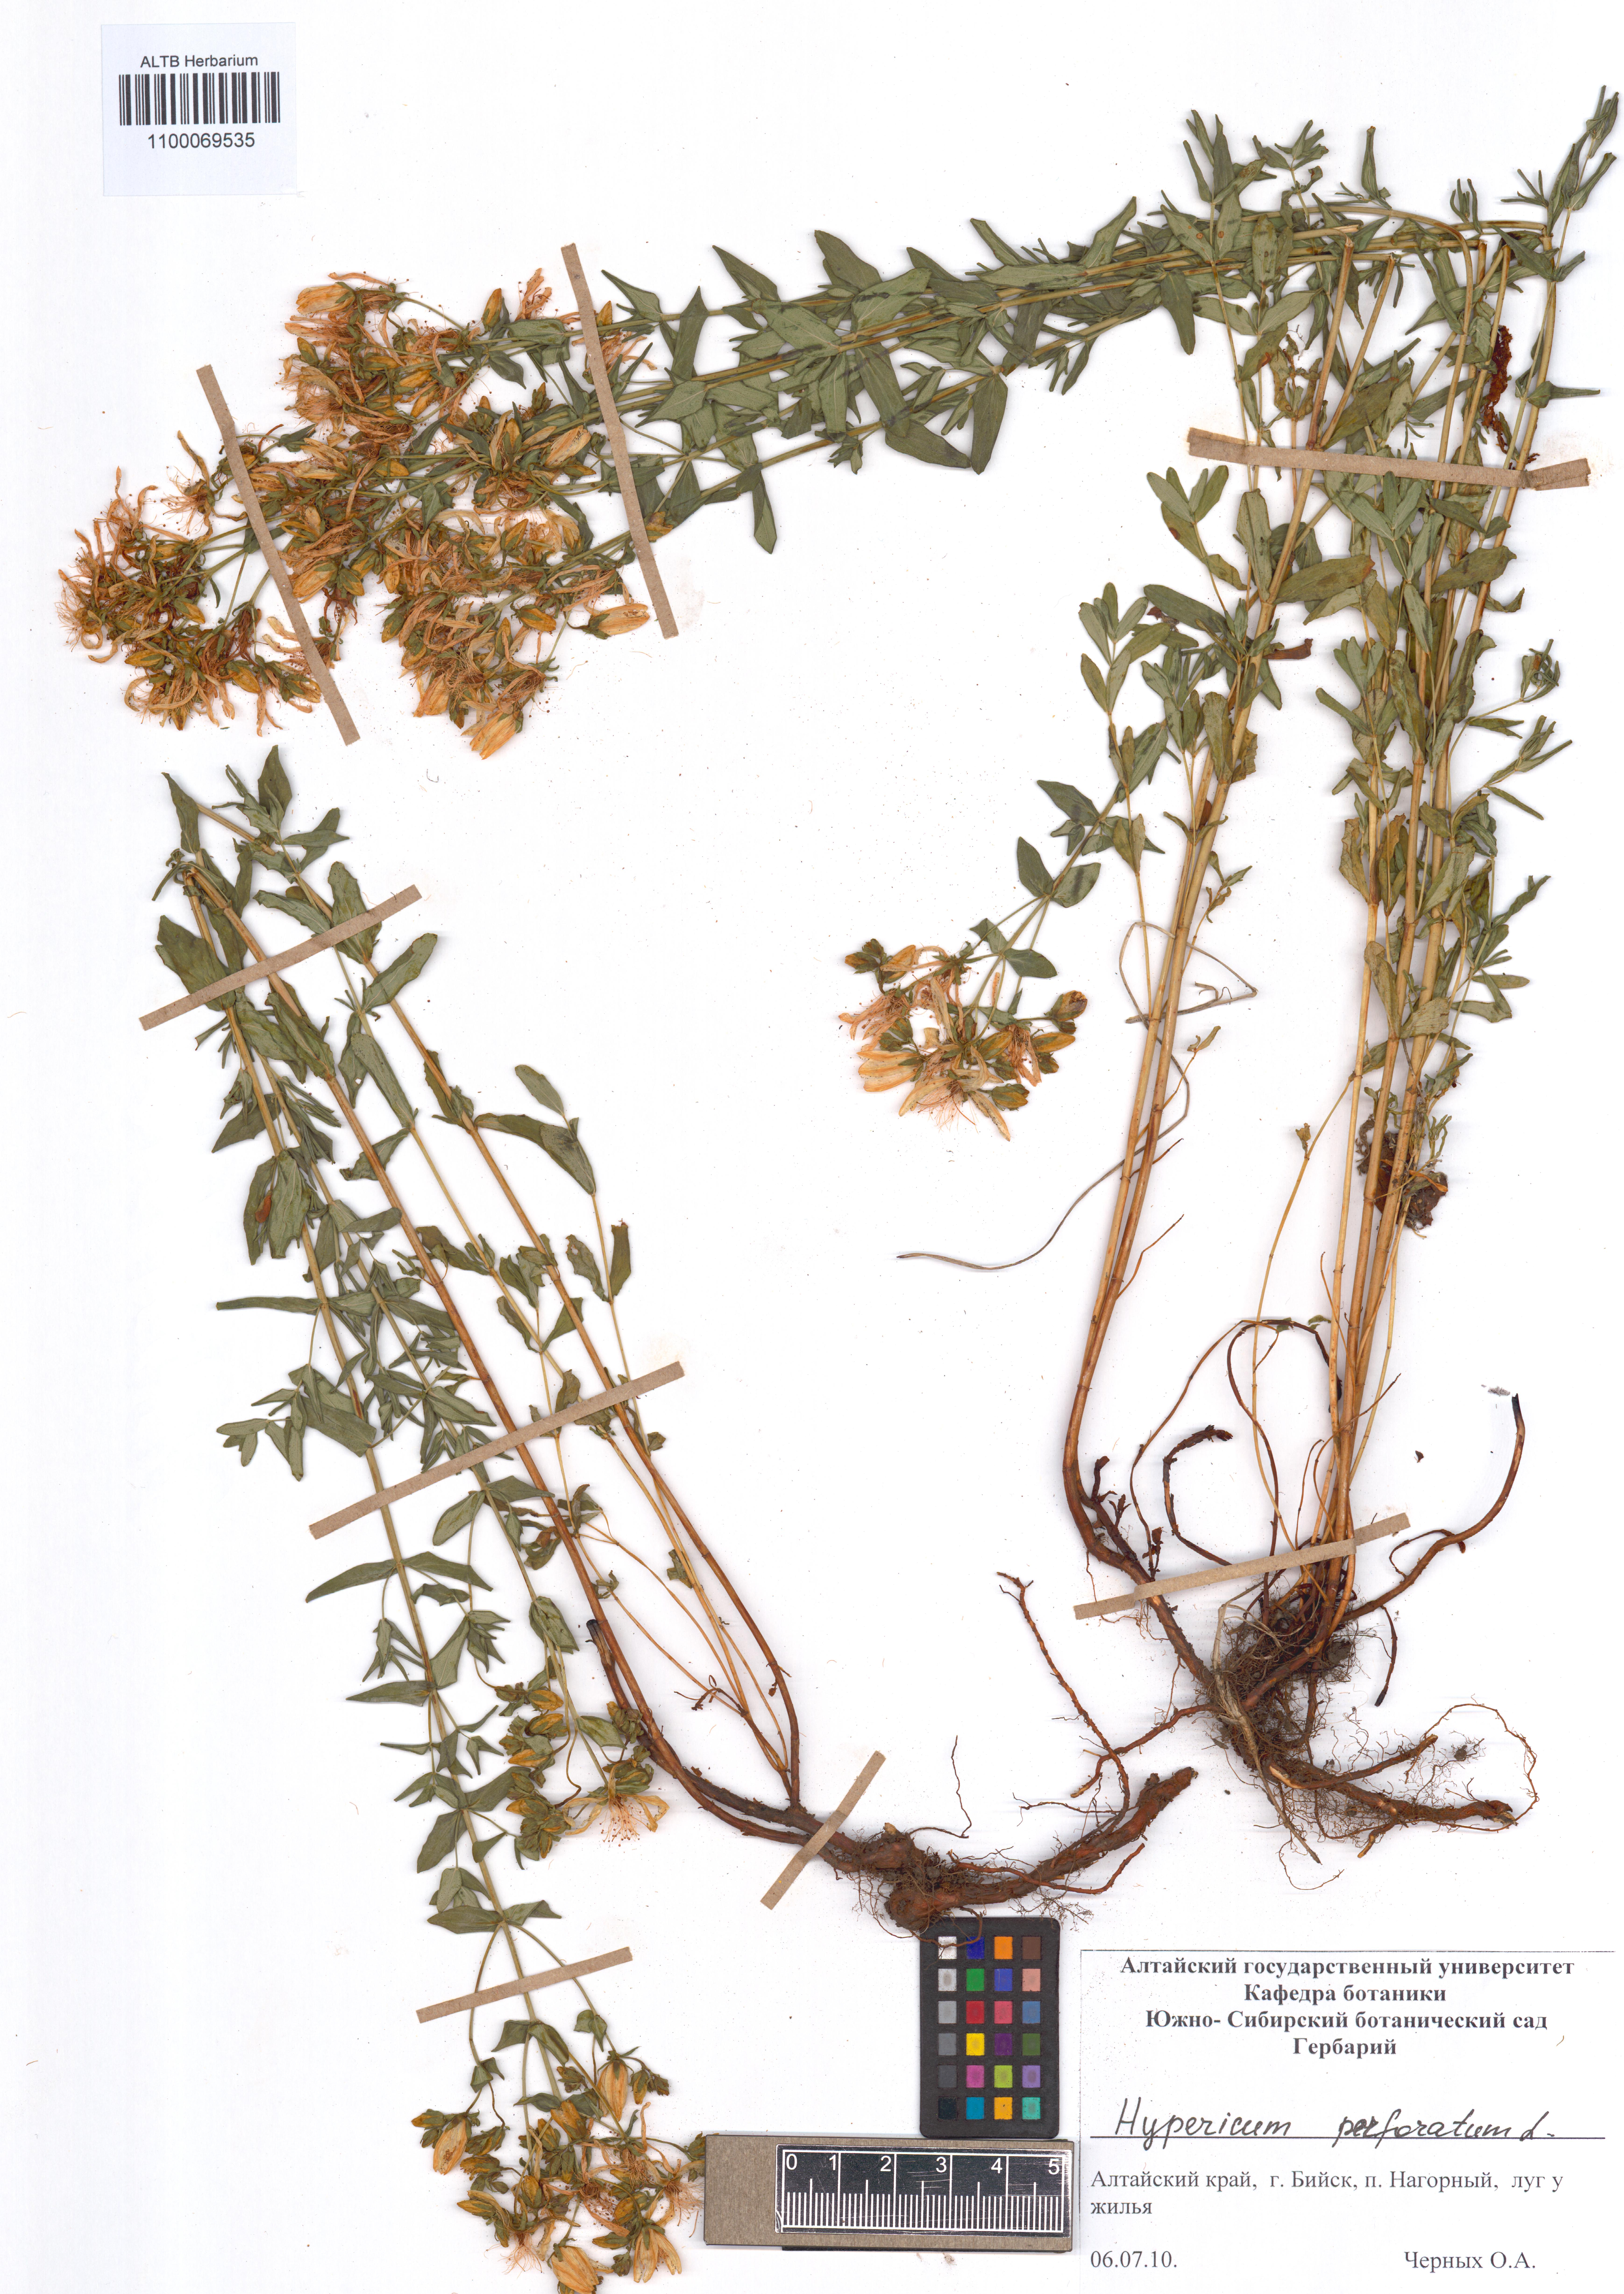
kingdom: Plantae
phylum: Tracheophyta
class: Magnoliopsida
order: Malpighiales
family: Hypericaceae
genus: Hypericum
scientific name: Hypericum perforatum
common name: Common st. johnswort
